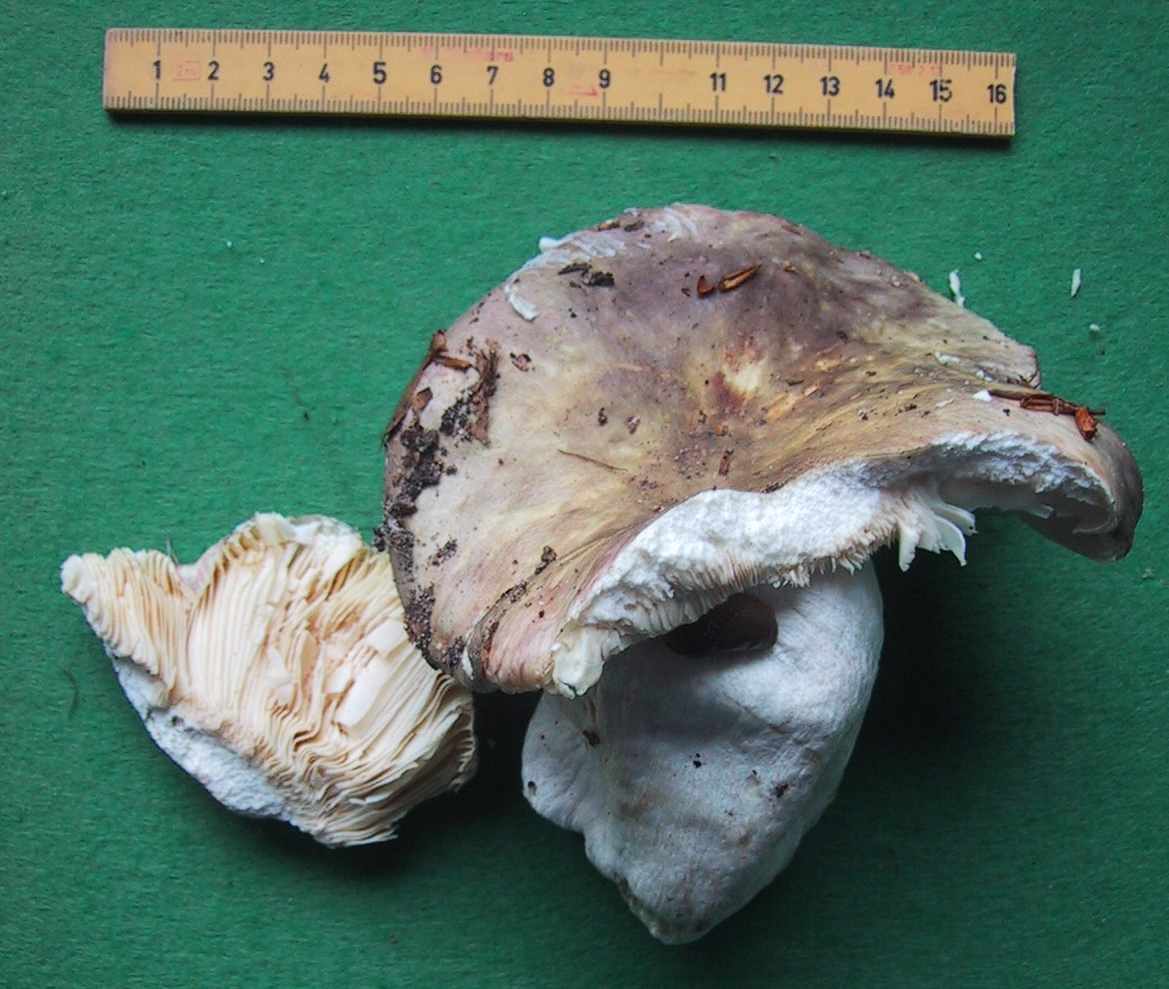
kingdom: Fungi
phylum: Basidiomycota
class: Agaricomycetes
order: Russulales
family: Russulaceae
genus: Russula
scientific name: Russula romellii
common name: romells skørhat
